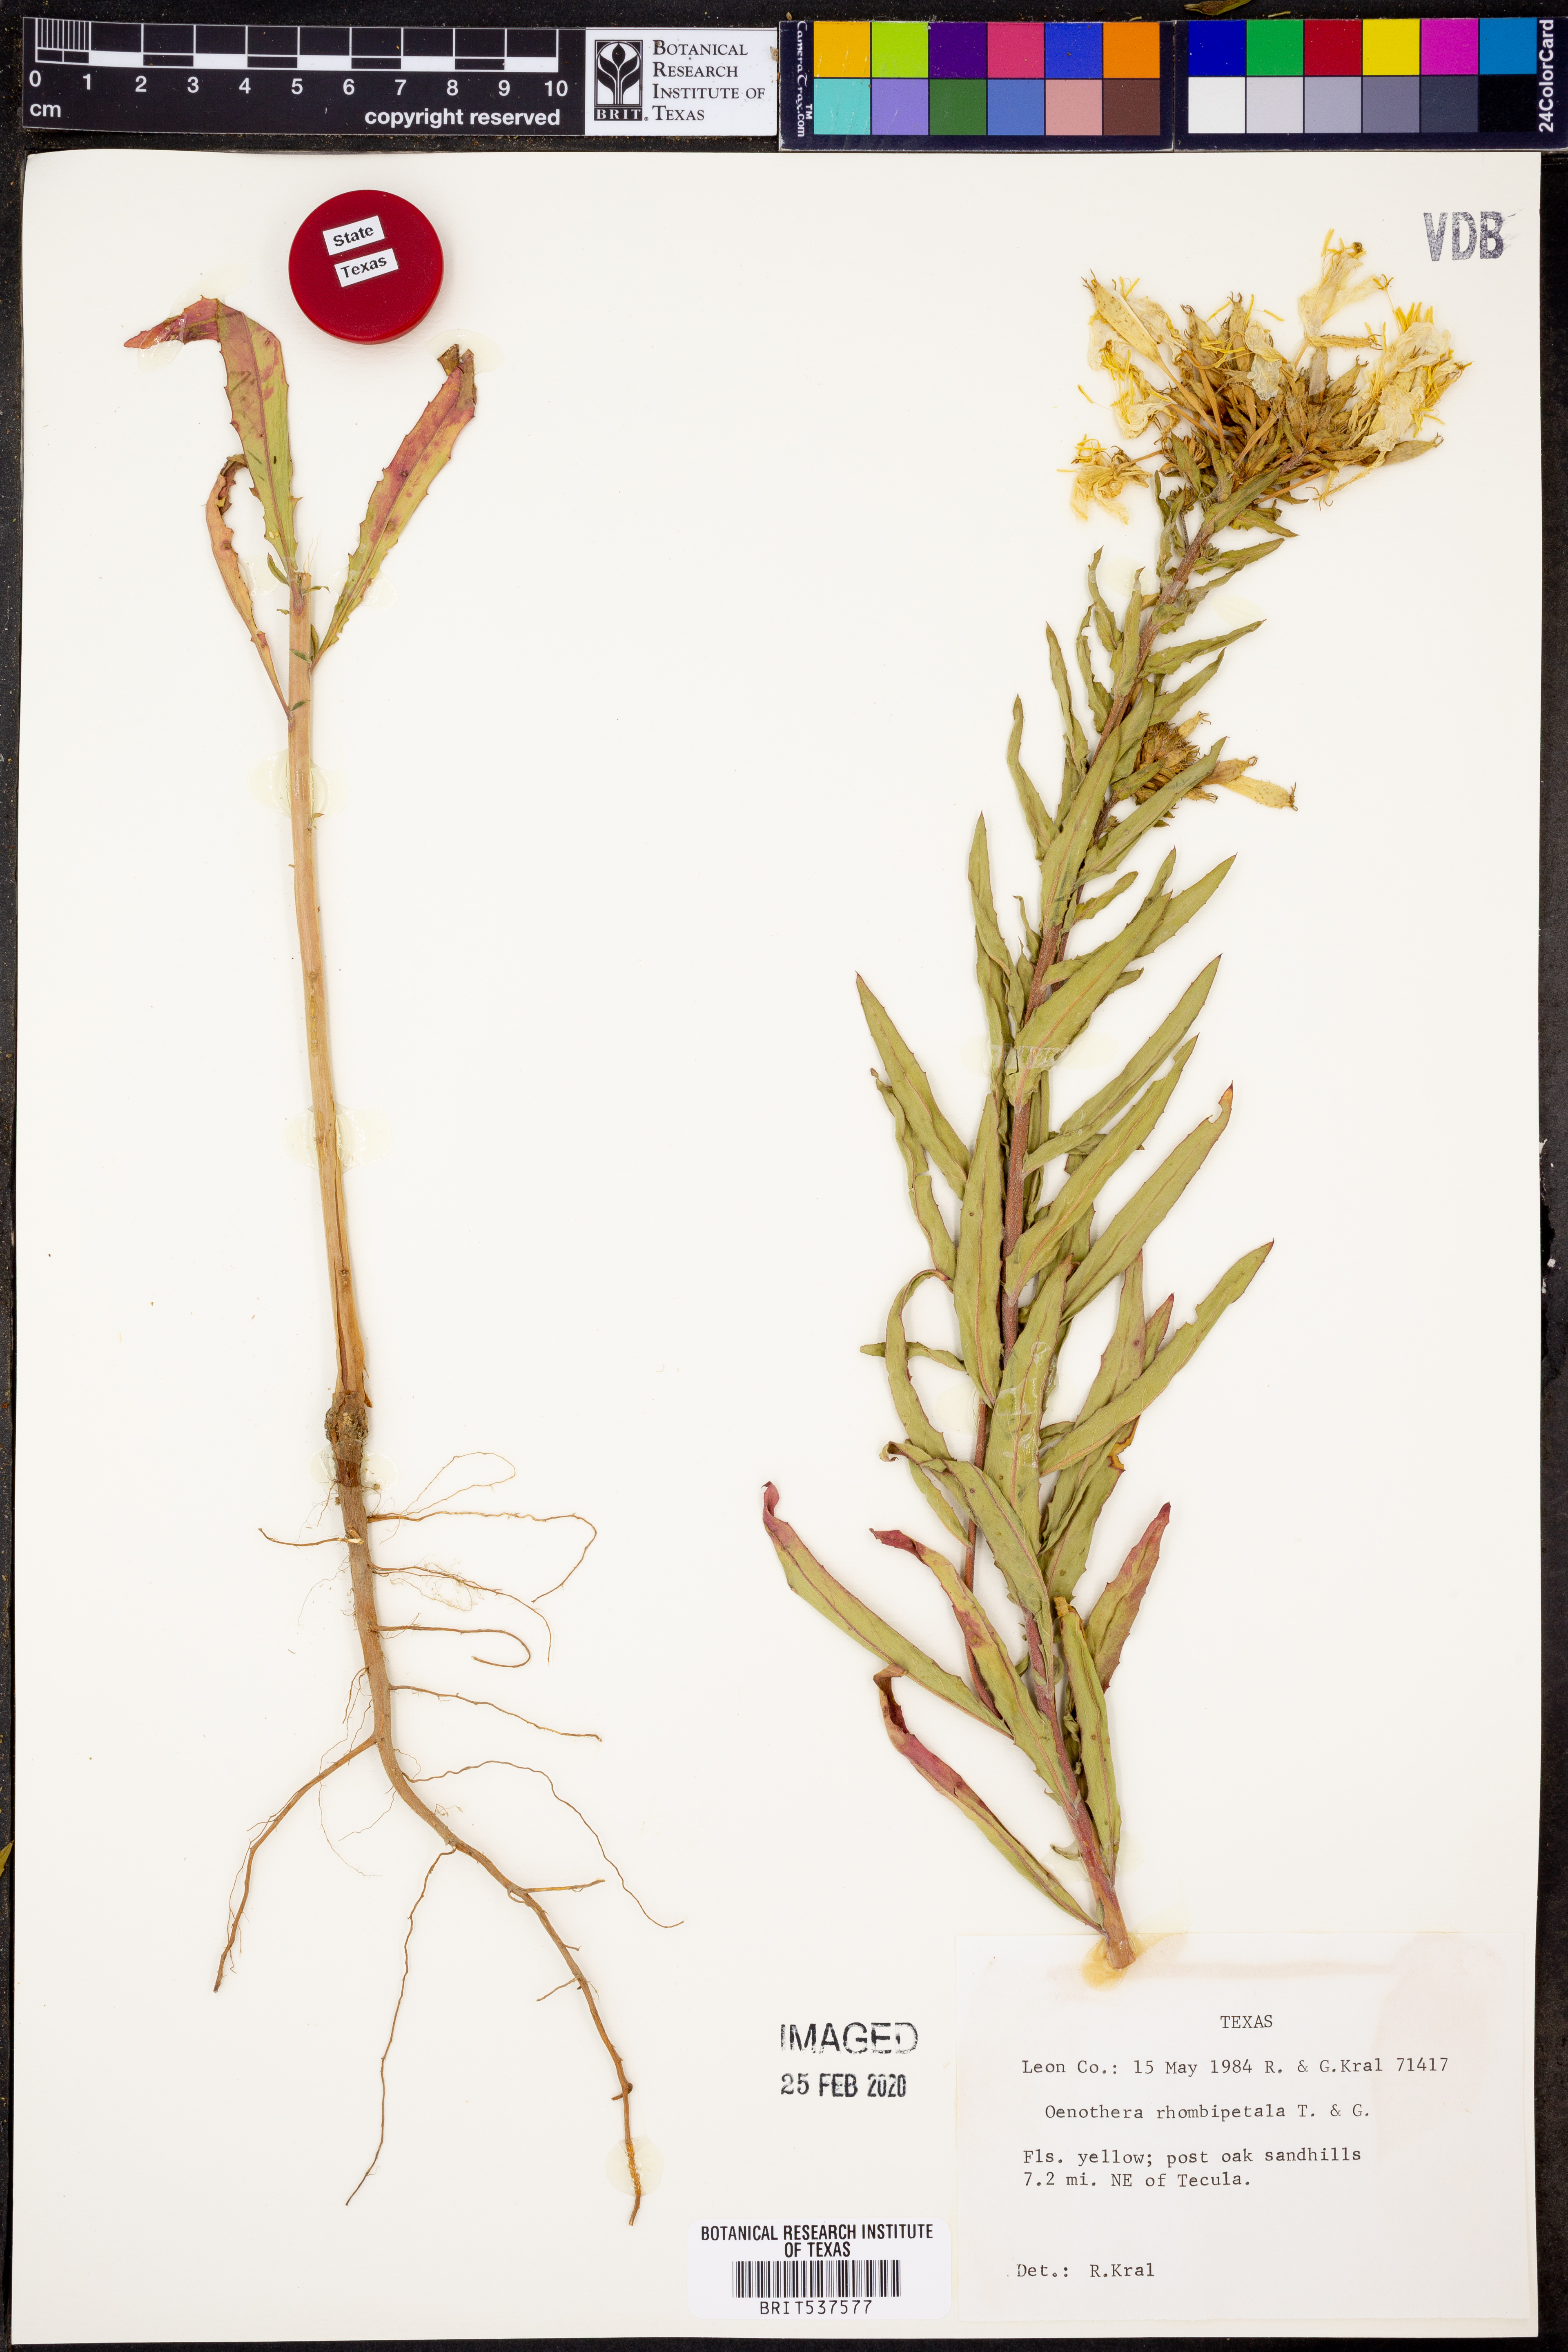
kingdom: Plantae
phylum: Tracheophyta
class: Magnoliopsida
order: Myrtales
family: Onagraceae
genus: Oenothera
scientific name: Oenothera rhombipetala
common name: Four-points evening-primrose
